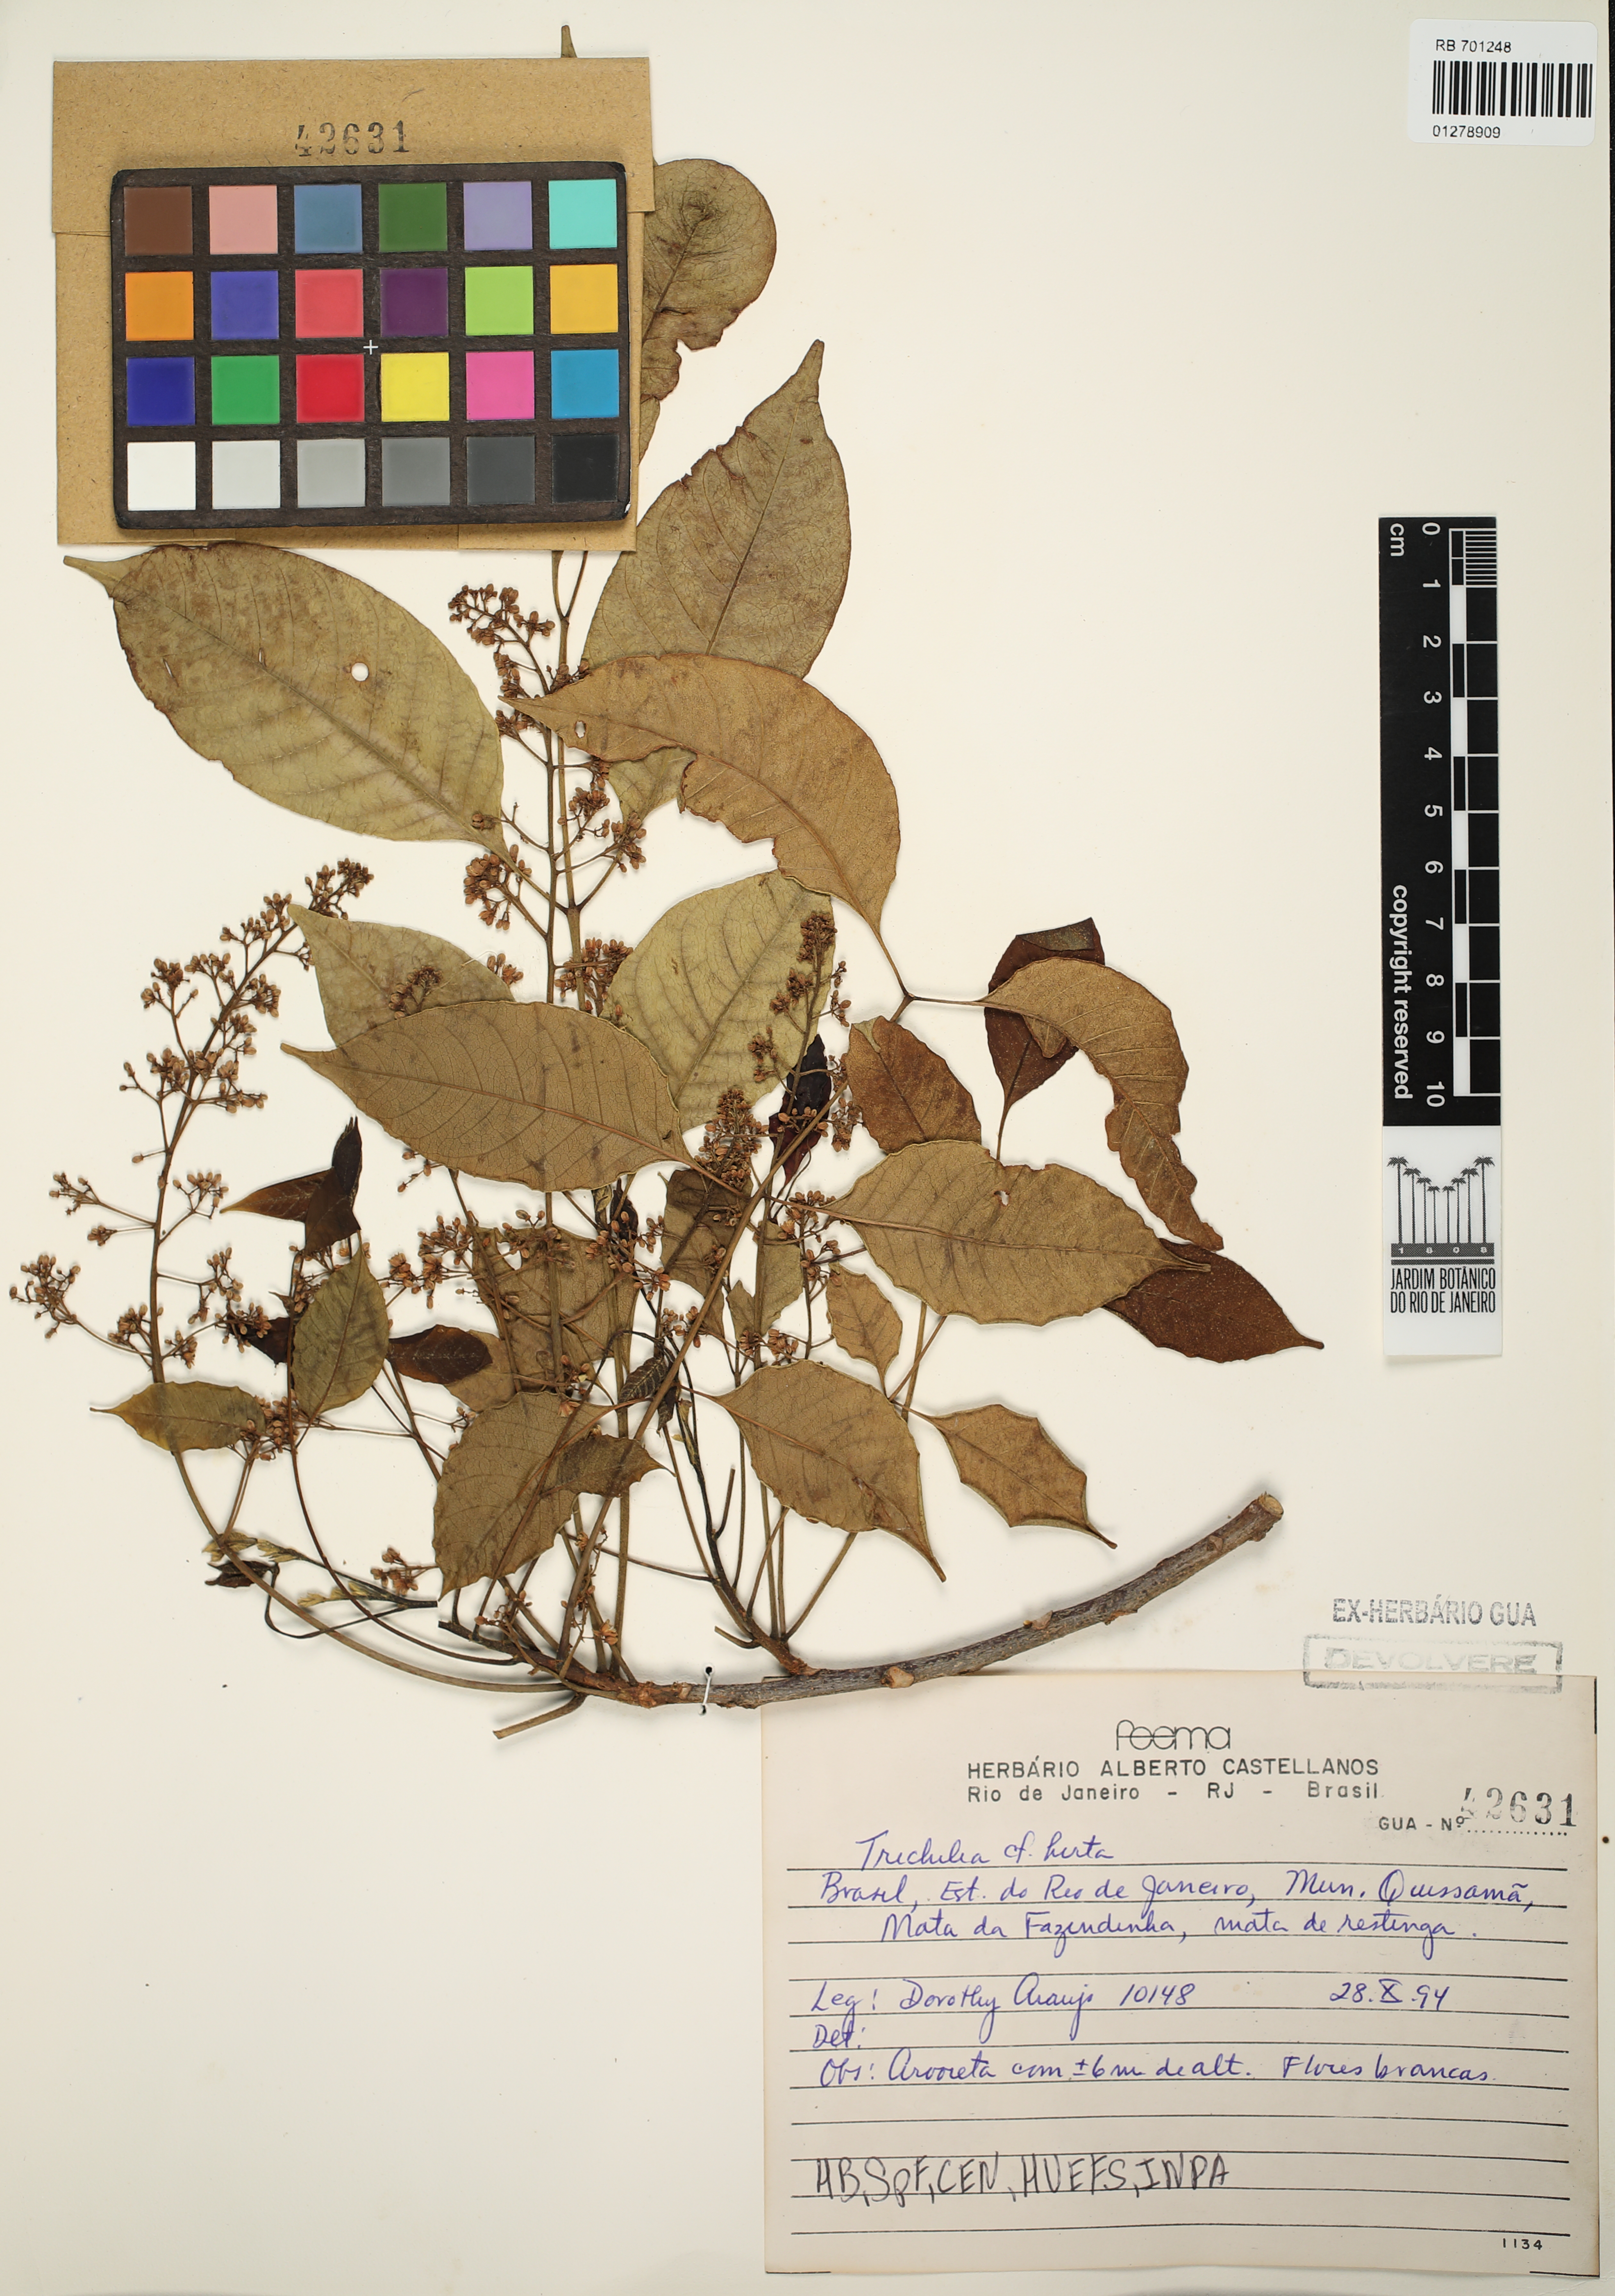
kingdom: Plantae
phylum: Tracheophyta
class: Magnoliopsida
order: Sapindales
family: Meliaceae
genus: Trichilia
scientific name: Trichilia hirta
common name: Red-cedar
